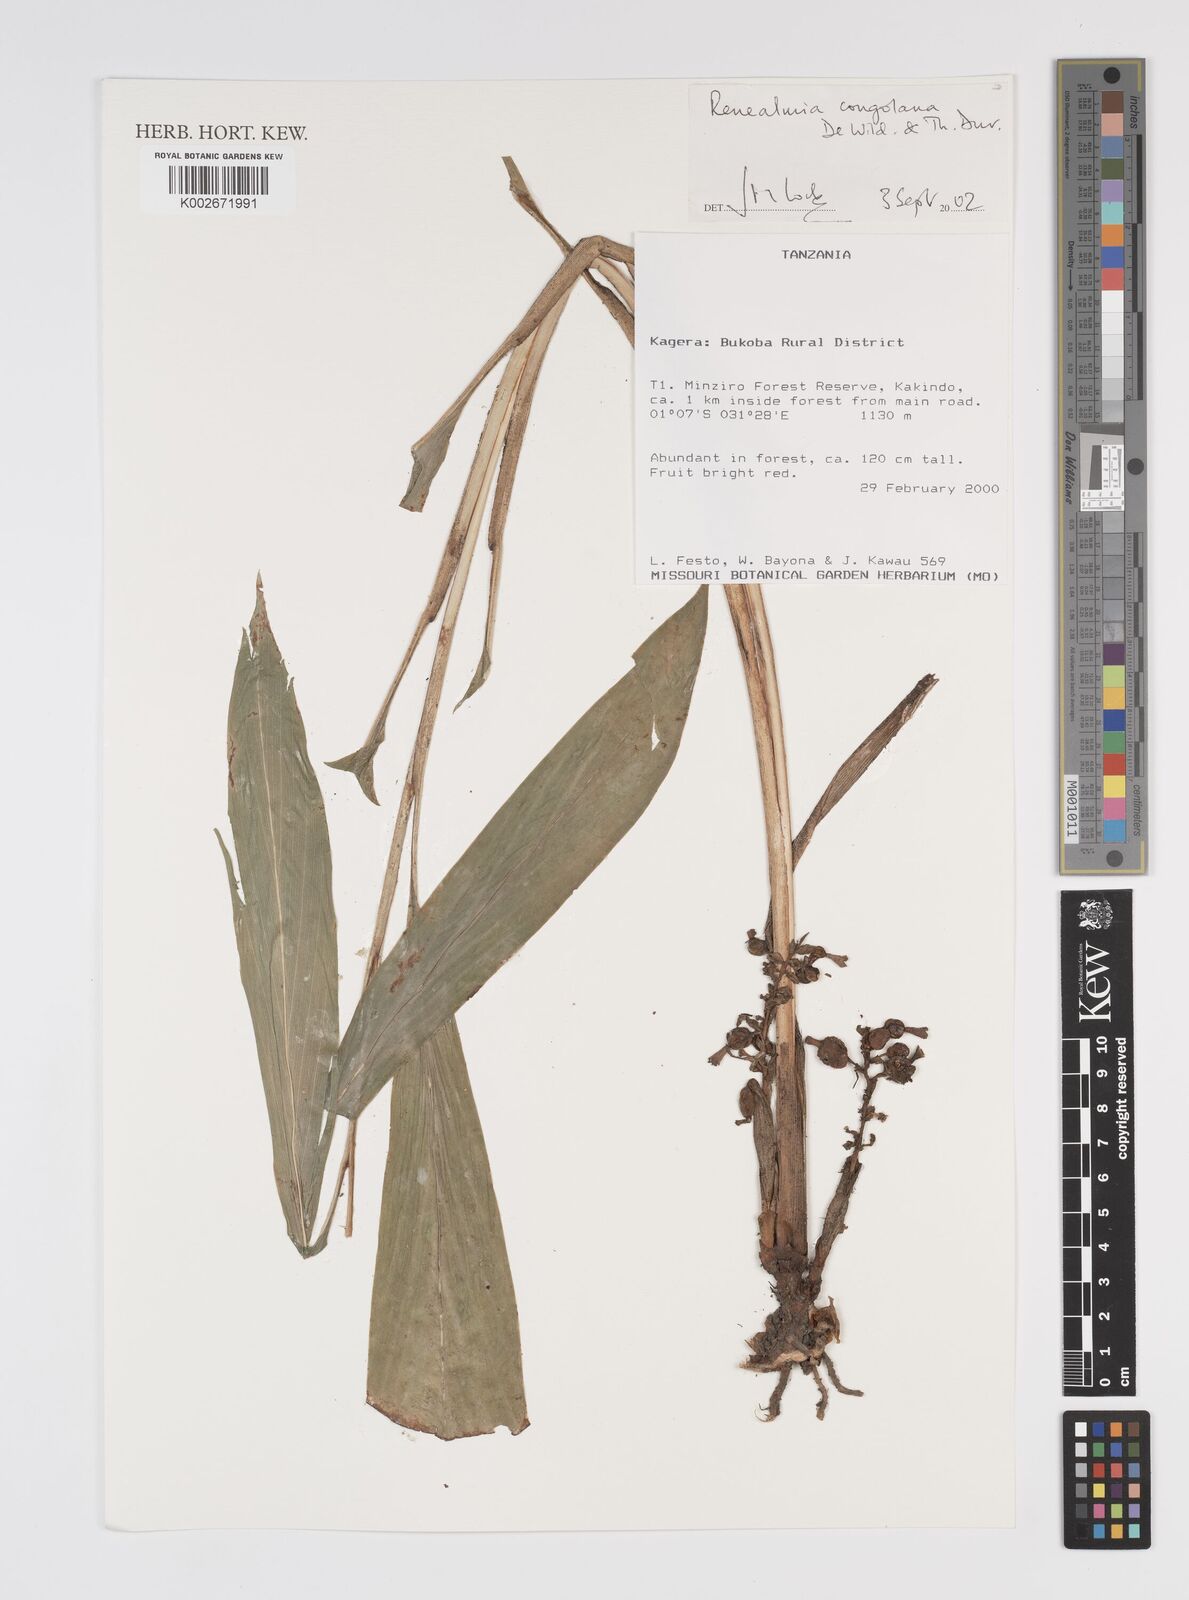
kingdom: Plantae
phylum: Tracheophyta
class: Liliopsida
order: Zingiberales
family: Zingiberaceae
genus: Renealmia
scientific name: Renealmia congolana
